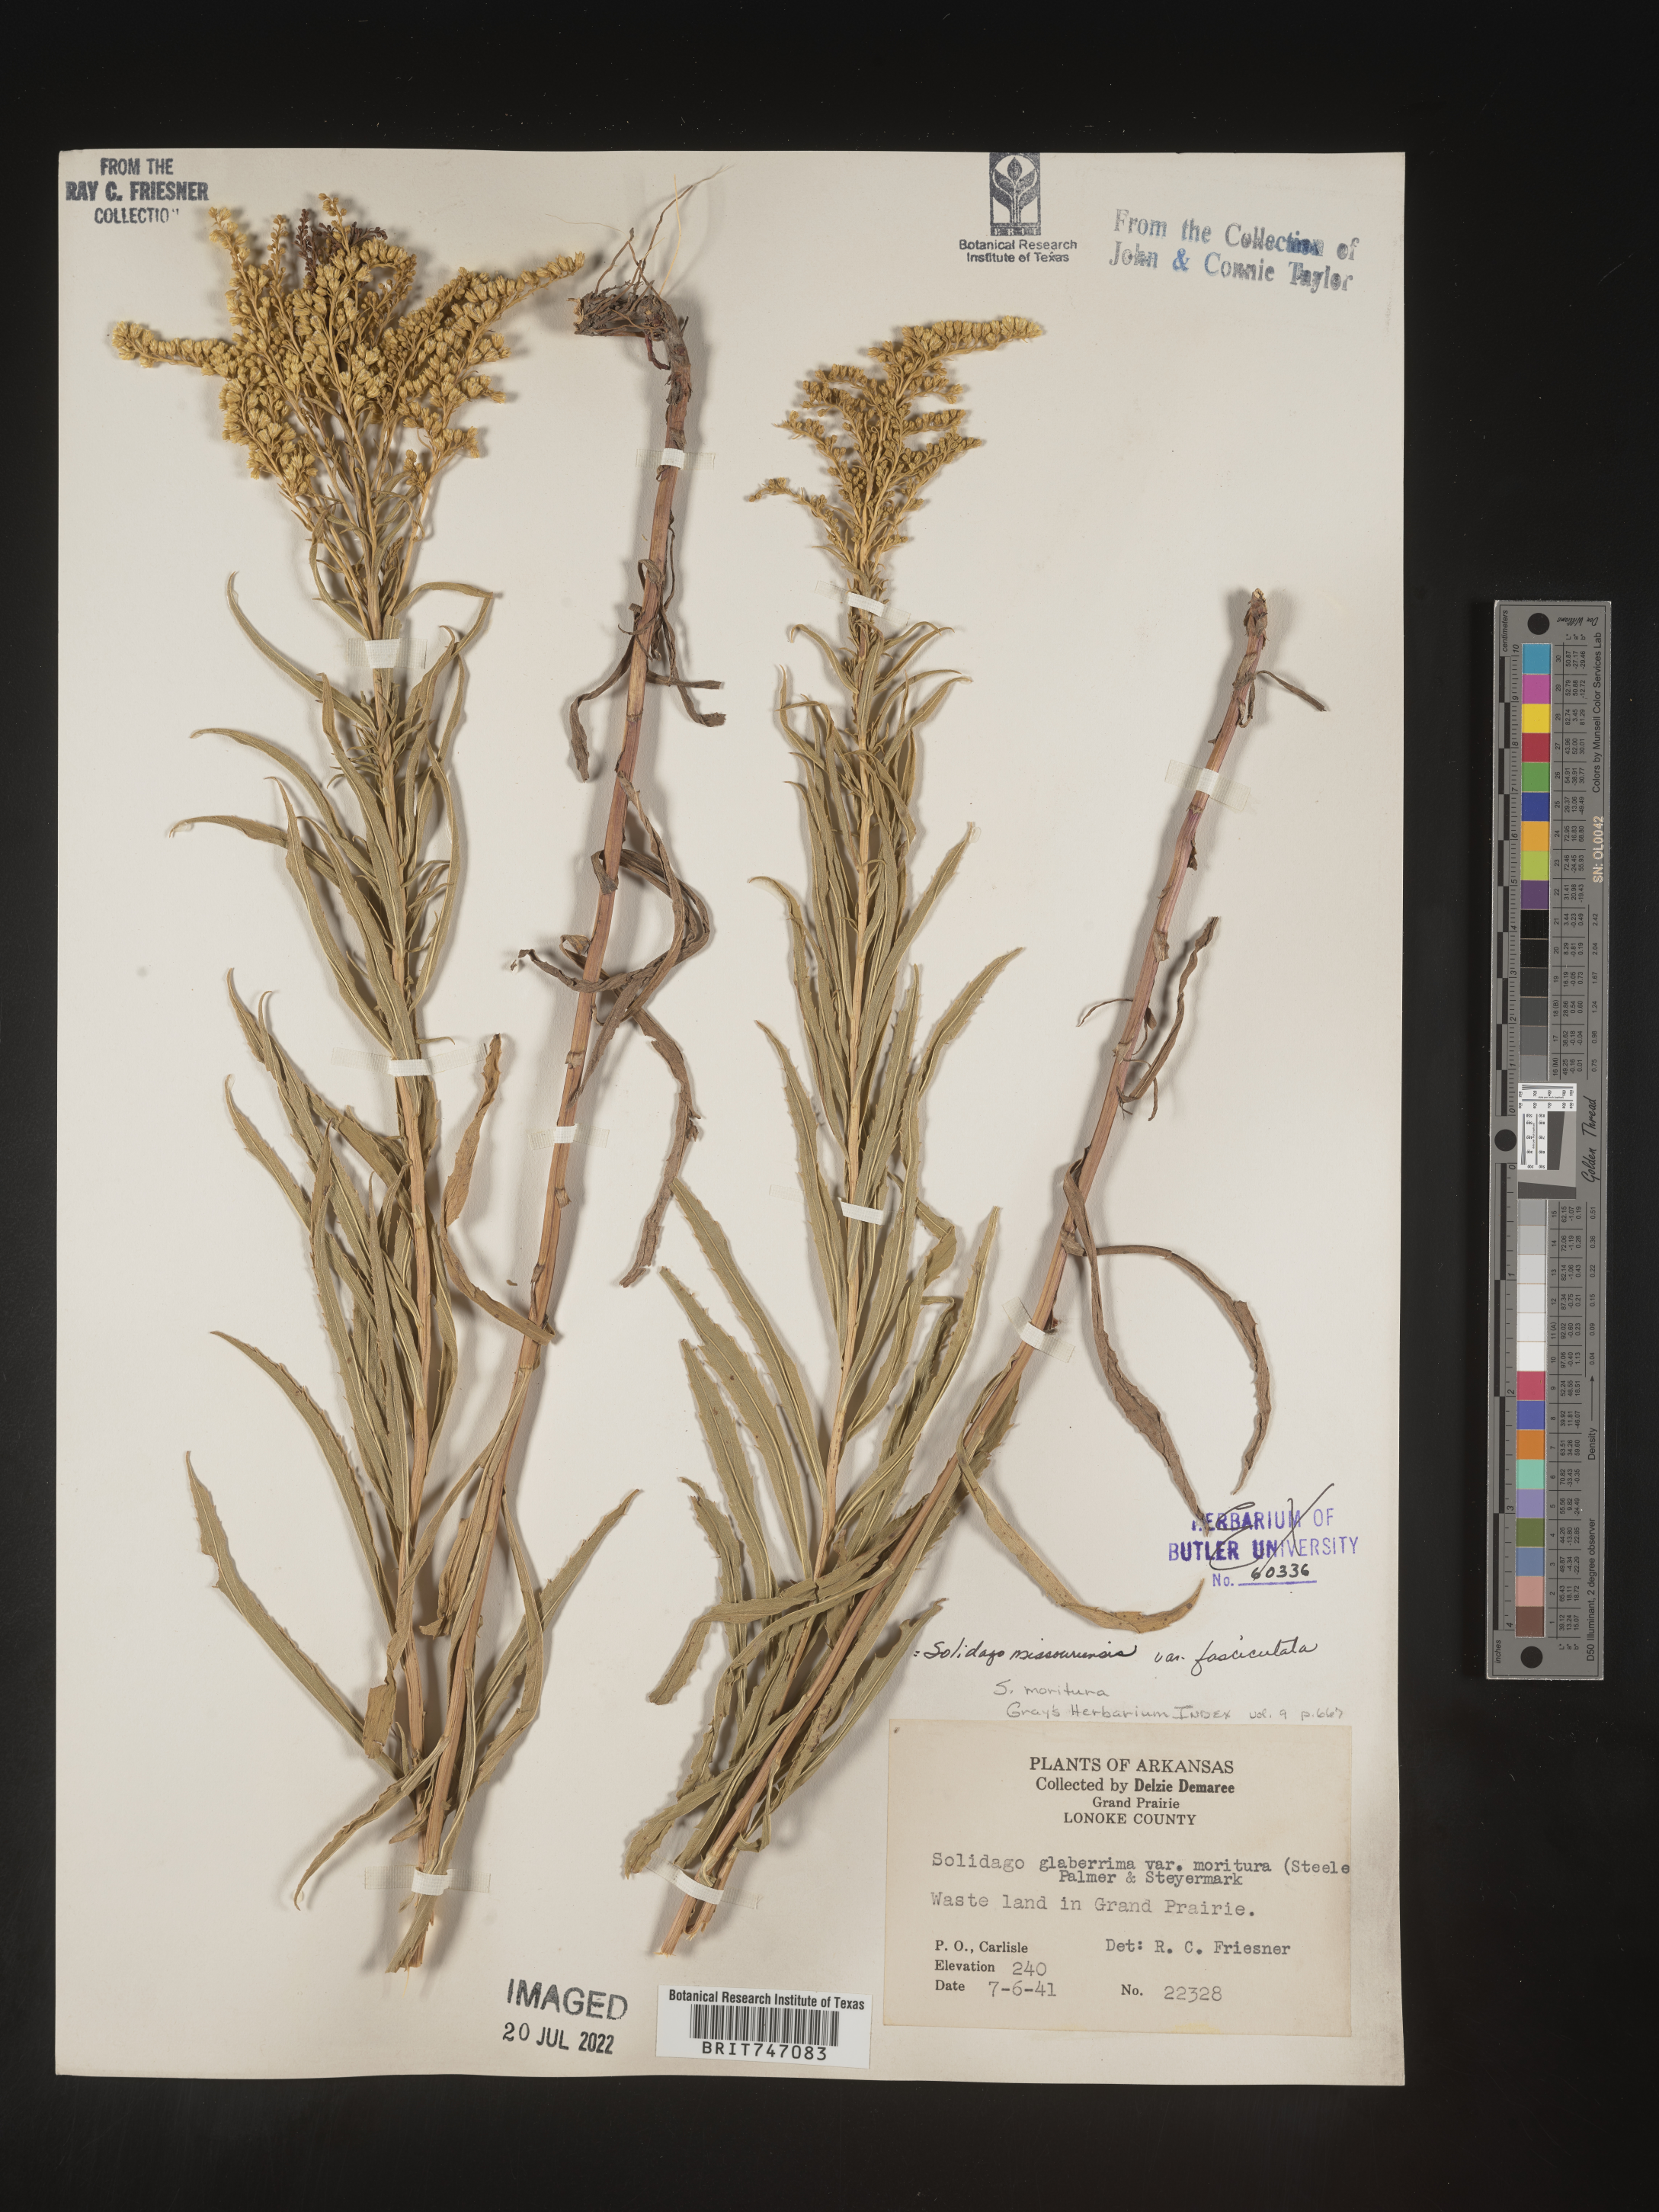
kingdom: Plantae
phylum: Tracheophyta
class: Magnoliopsida
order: Asterales
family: Asteraceae
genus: Solidago
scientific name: Solidago missouriensis
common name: Prairie goldenrod
